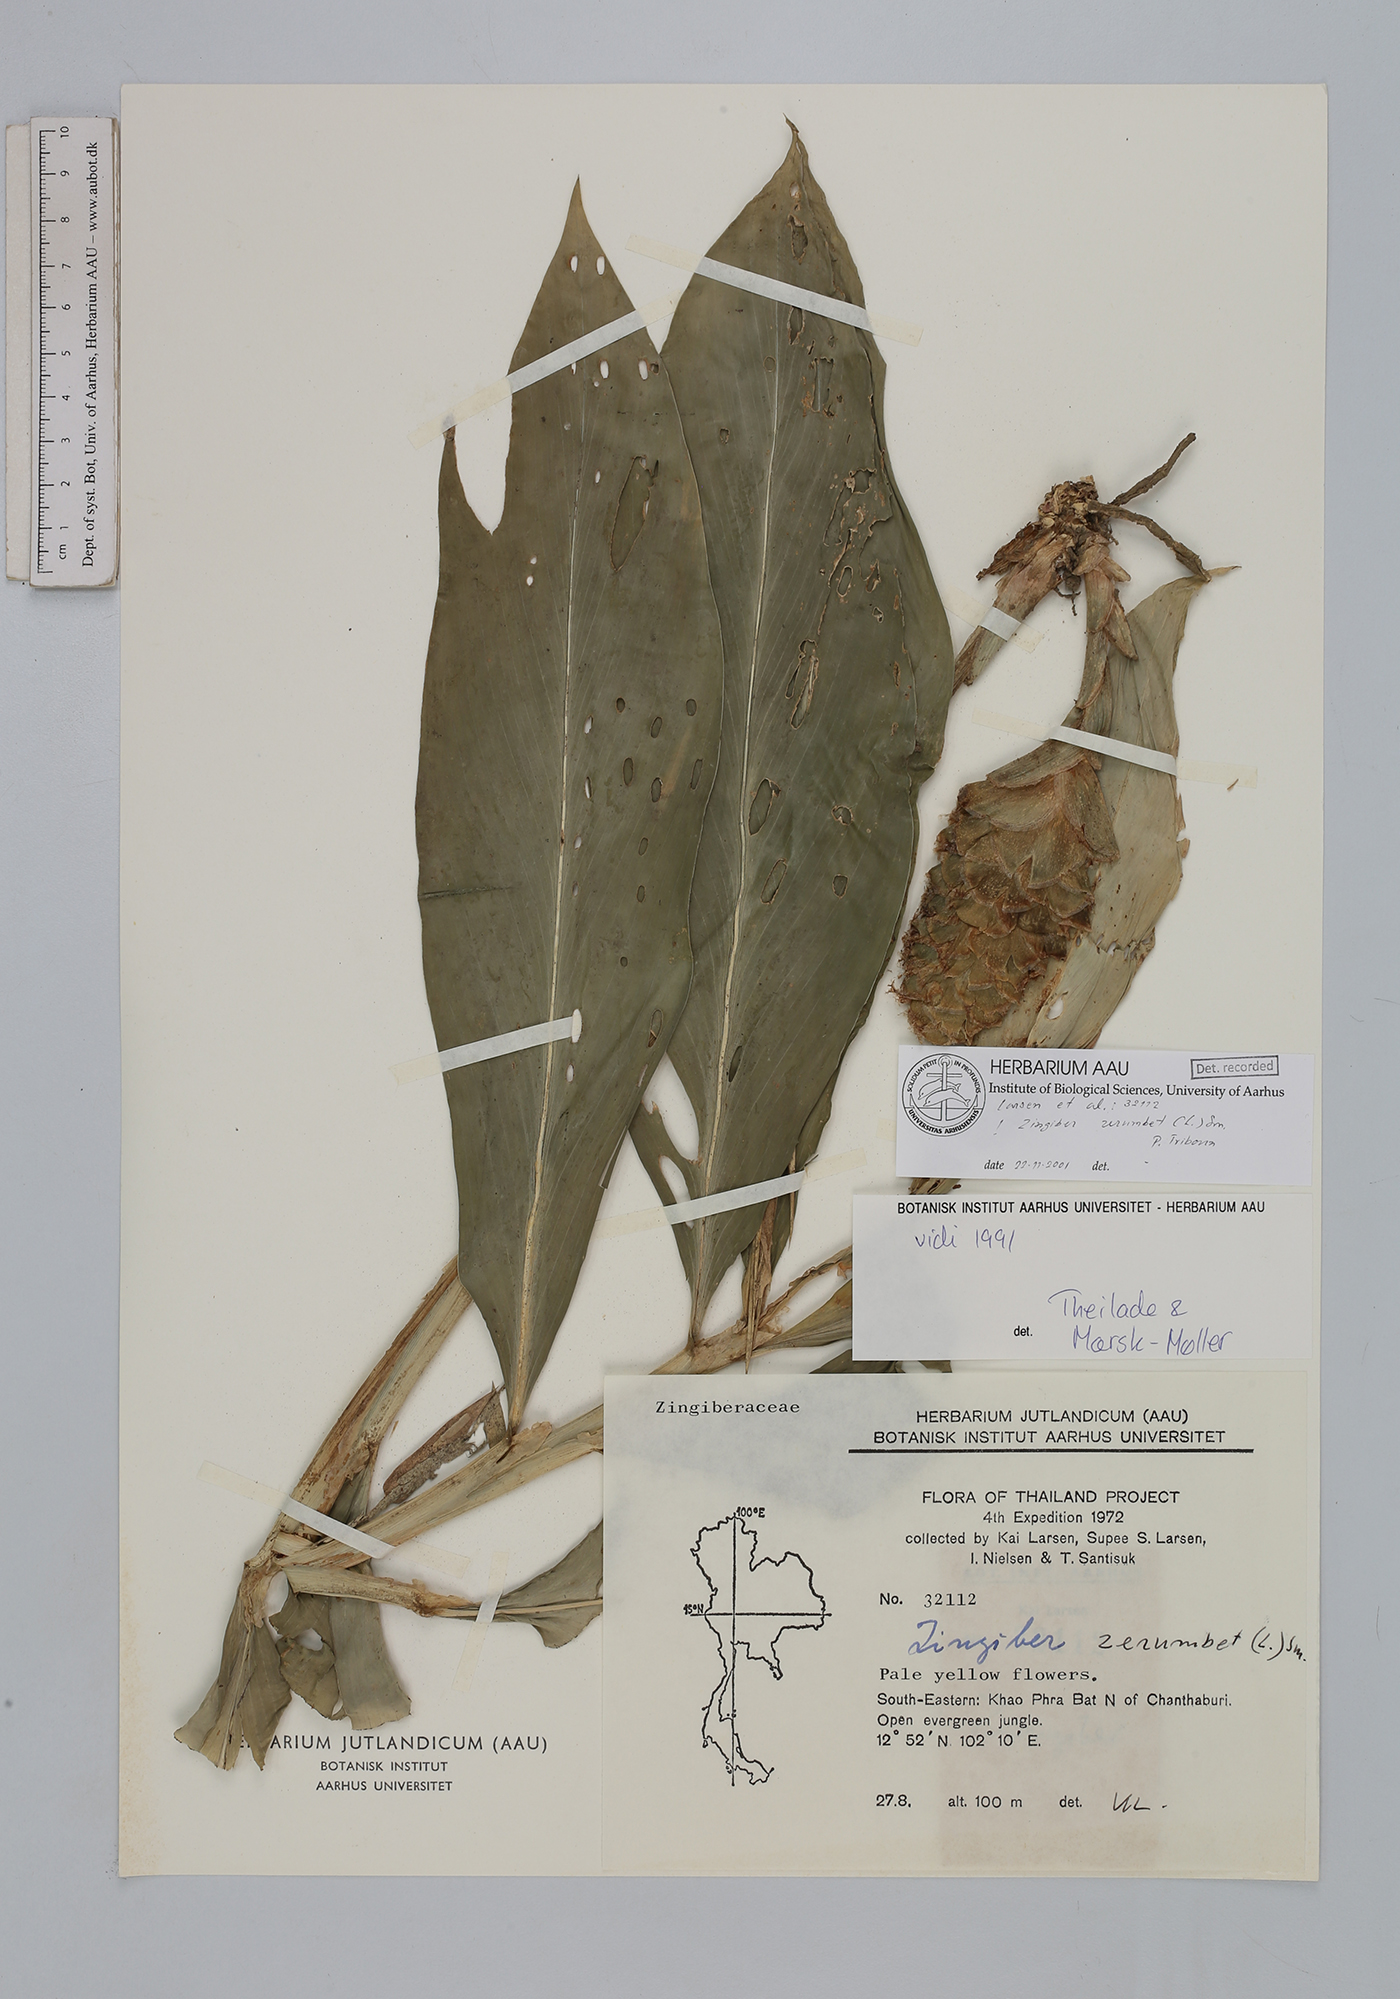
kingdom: Plantae
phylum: Tracheophyta
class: Liliopsida
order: Zingiberales
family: Zingiberaceae
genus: Zingiber
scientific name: Zingiber zerumbet
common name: Bitter ginger
